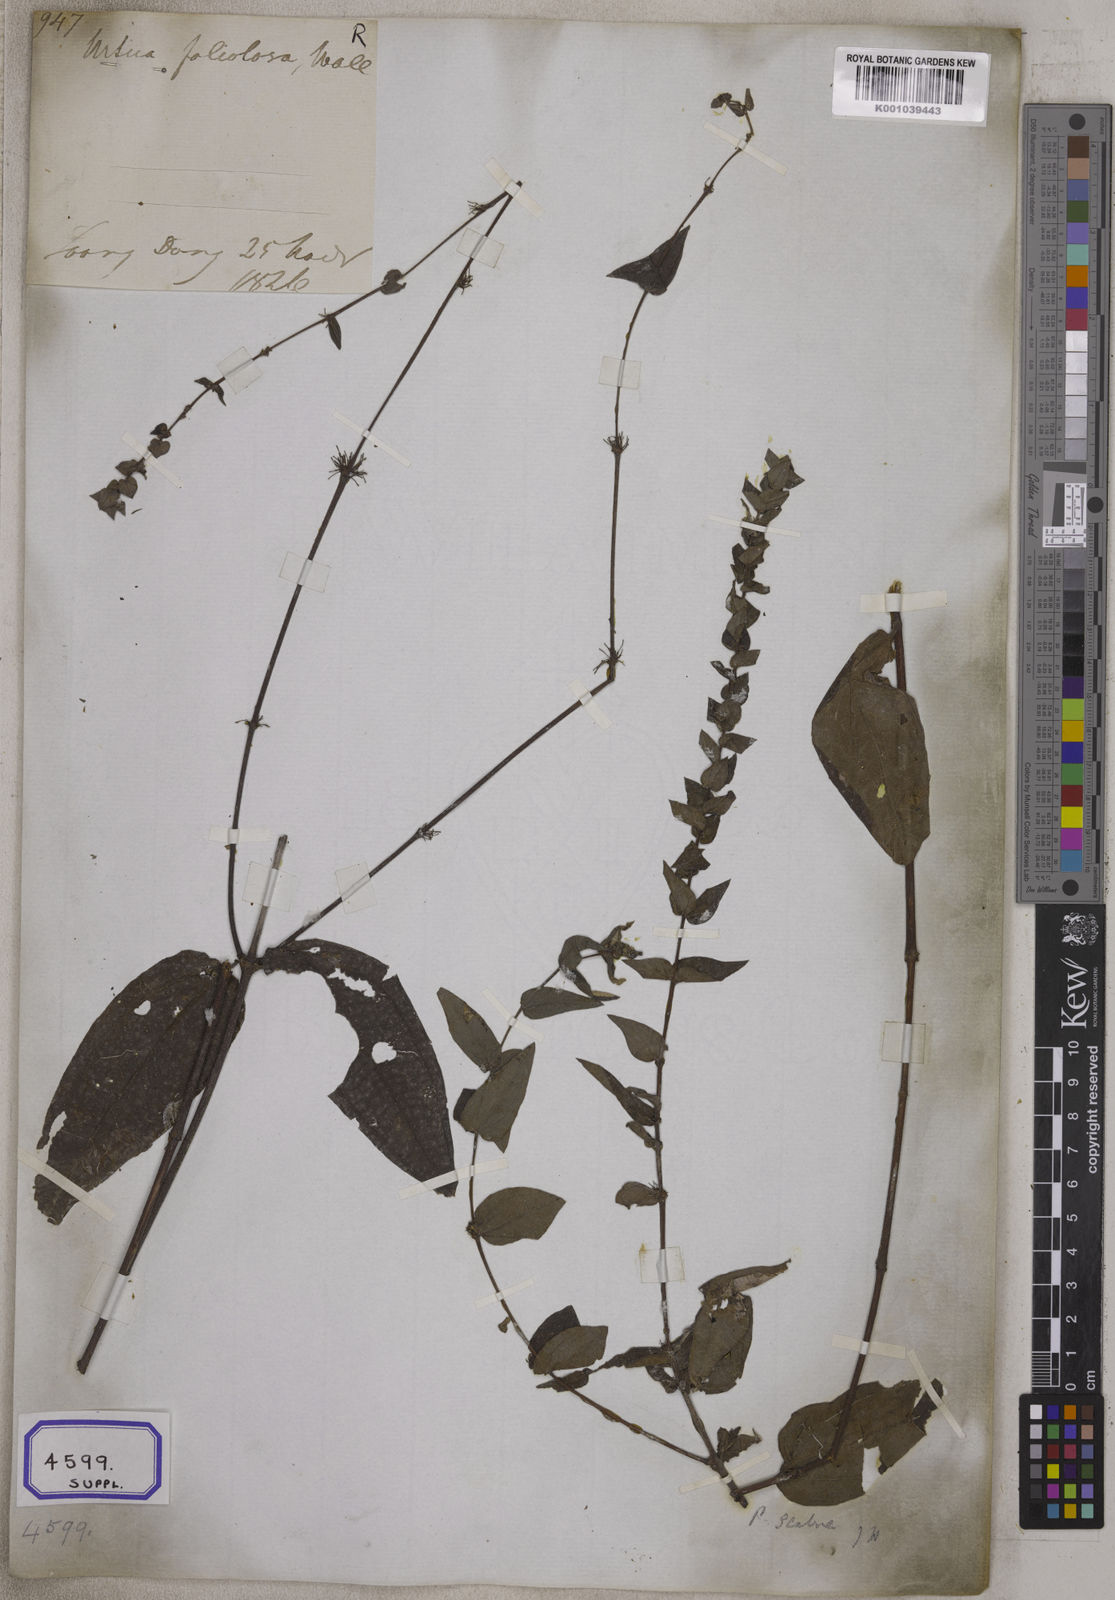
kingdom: Plantae
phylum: Tracheophyta
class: Magnoliopsida
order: Rosales
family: Urticaceae
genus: Gonostegia
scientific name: Gonostegia pentandra
